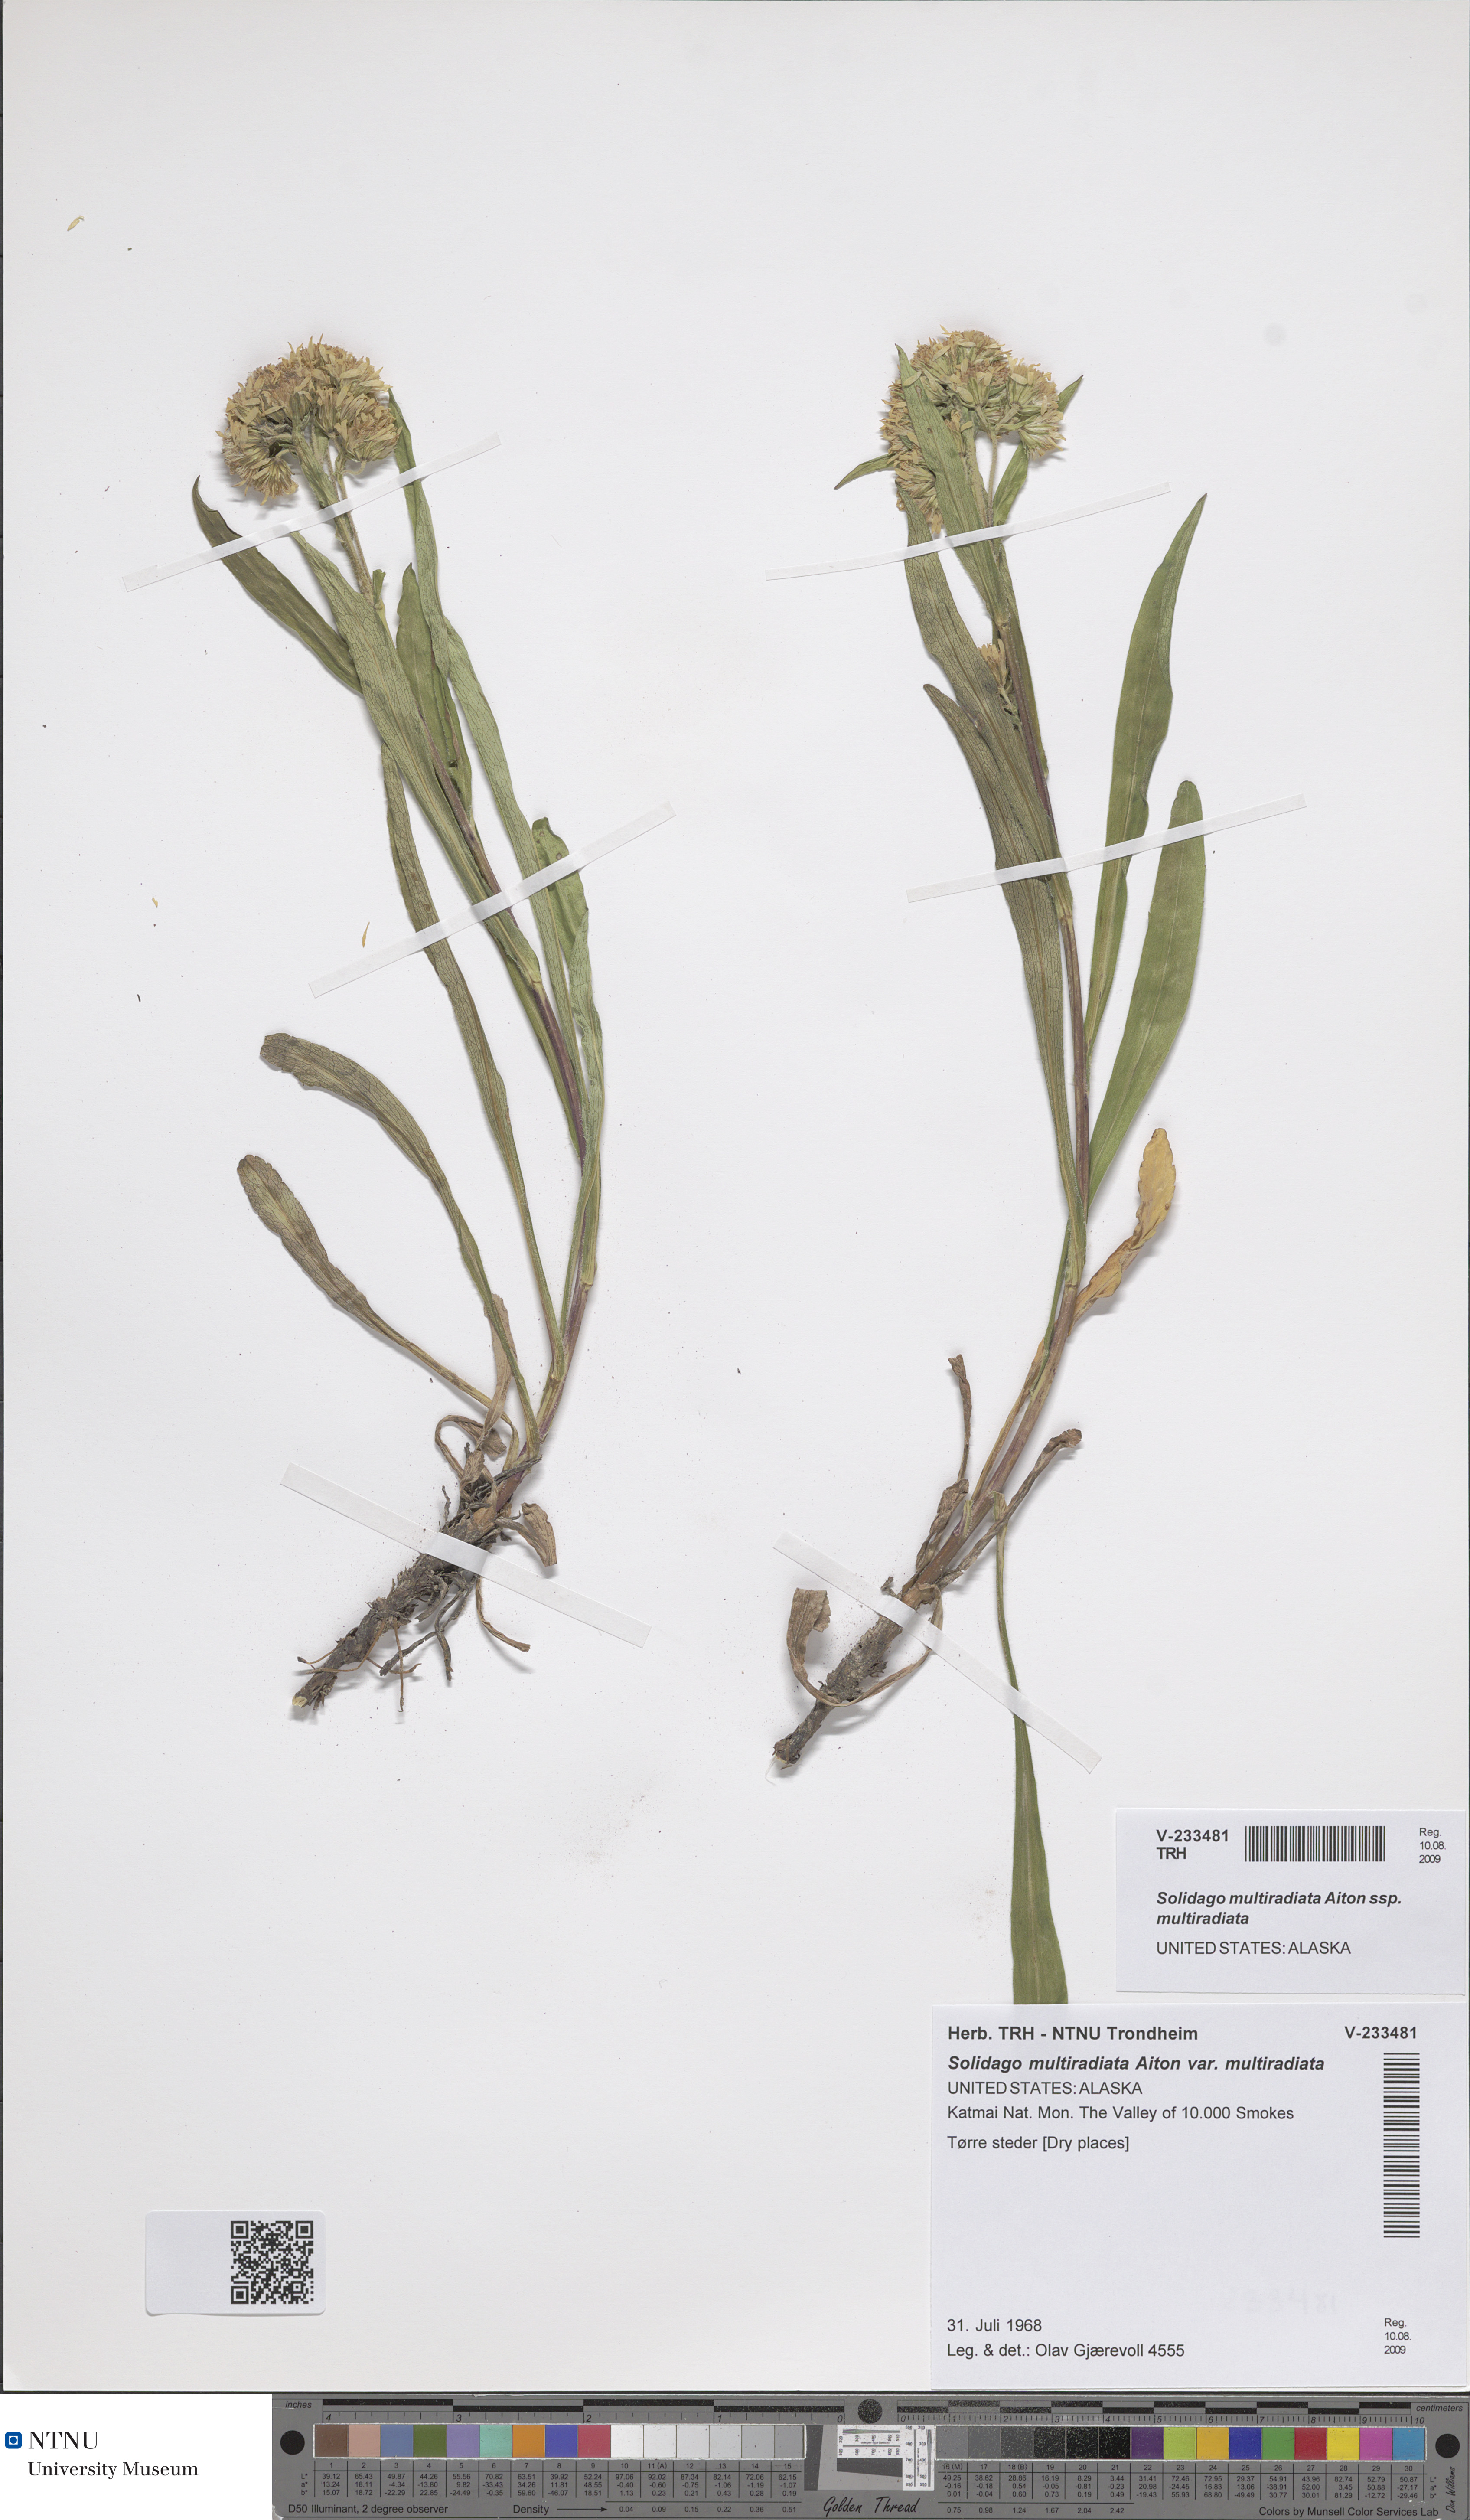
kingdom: Plantae
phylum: Tracheophyta
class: Magnoliopsida
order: Asterales
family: Asteraceae
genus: Solidago
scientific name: Solidago multiradiata
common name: Northern goldenrod
